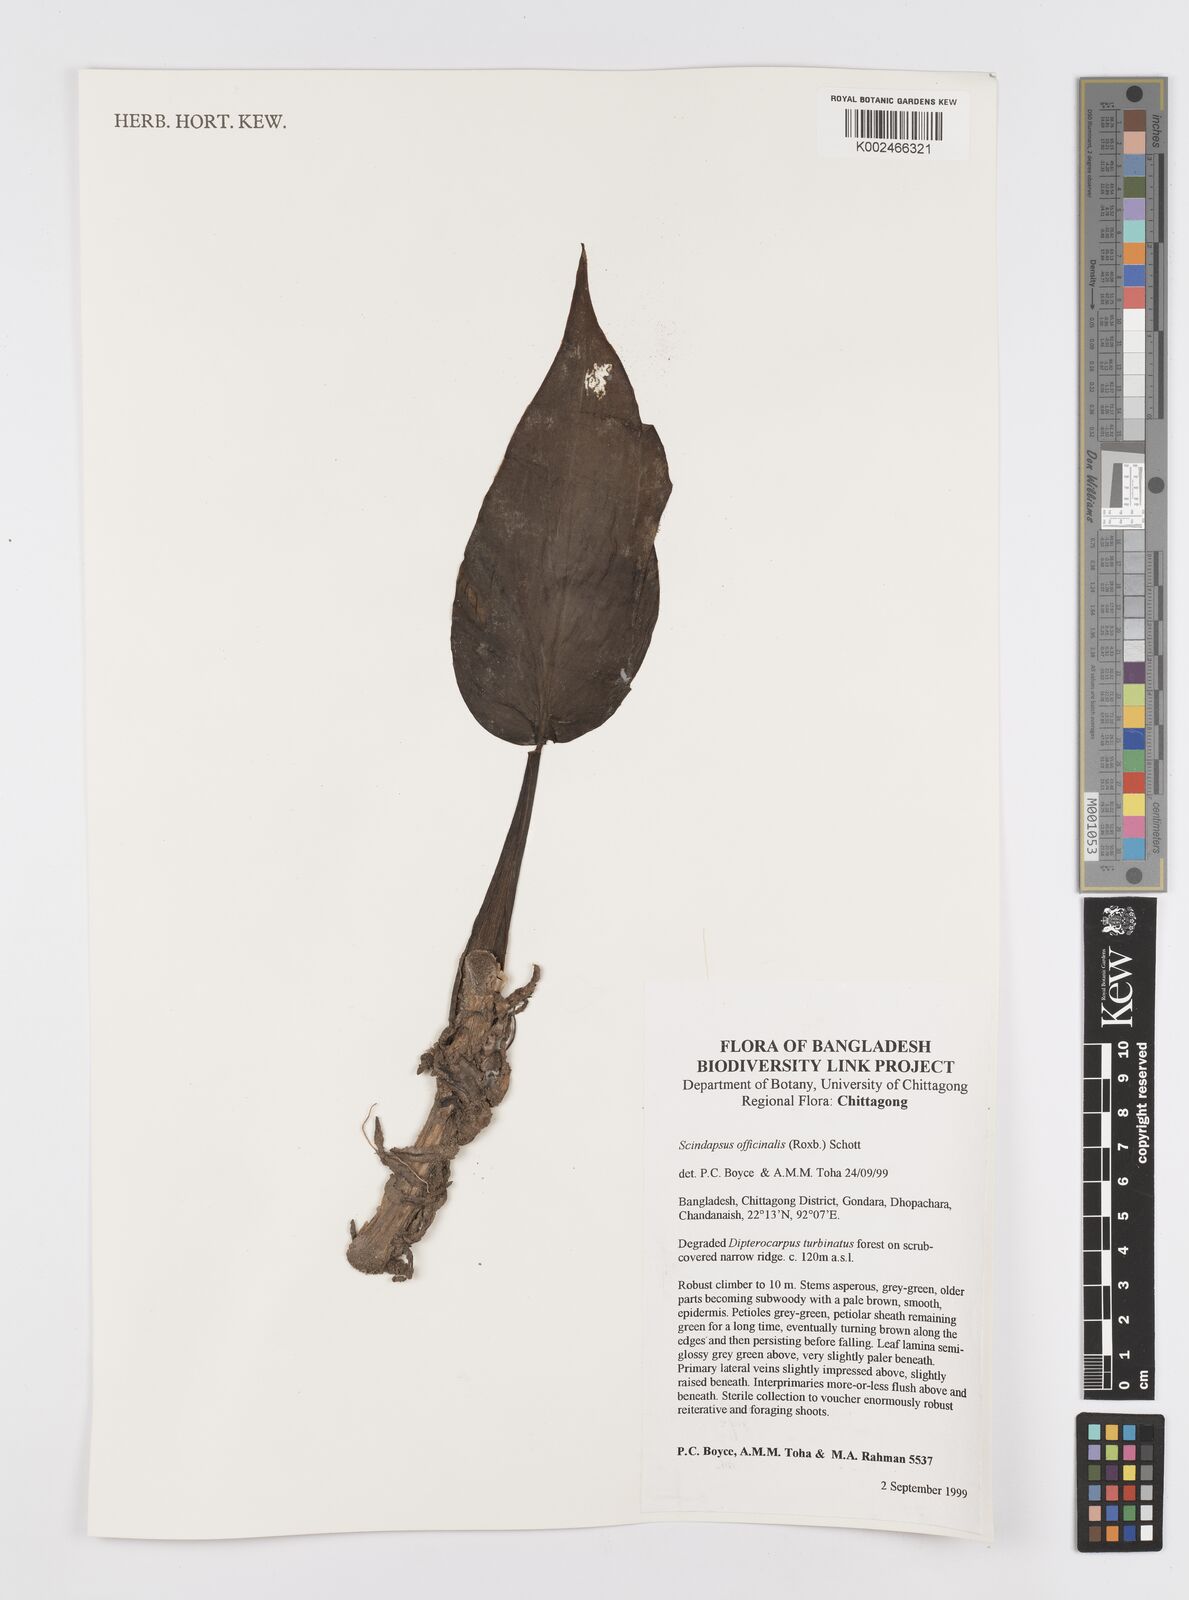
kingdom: Plantae
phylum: Tracheophyta
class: Liliopsida
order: Alismatales
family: Araceae
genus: Scindapsus
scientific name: Scindapsus officinalis
